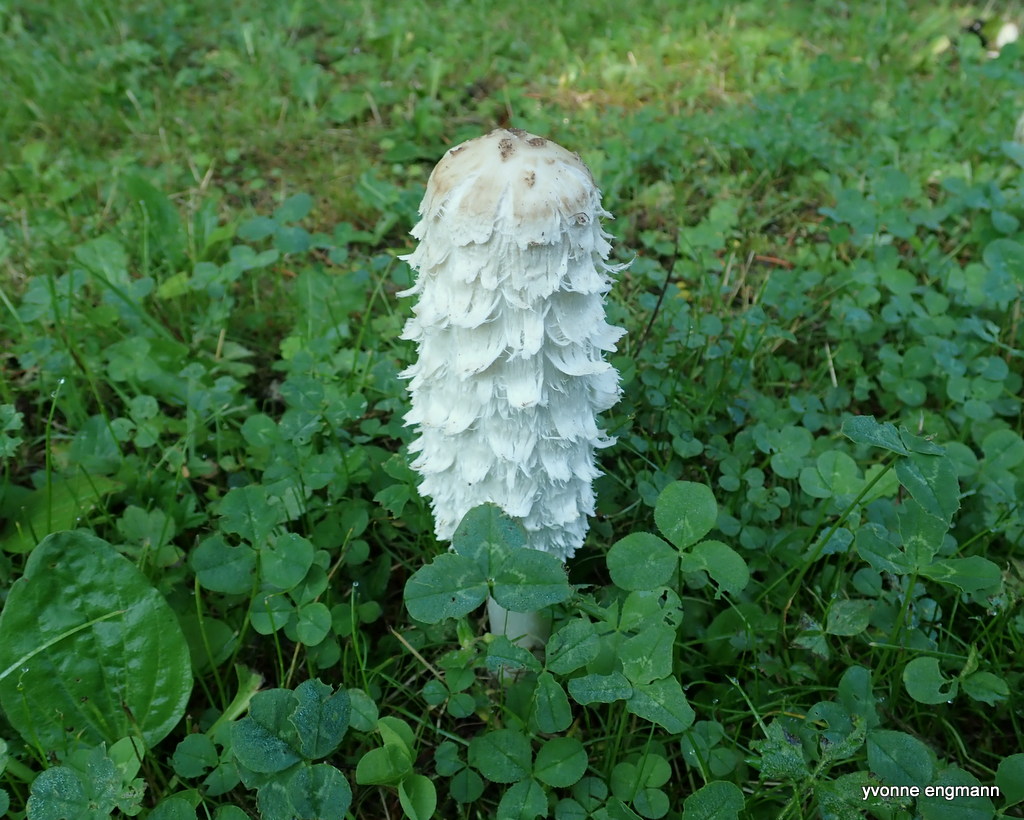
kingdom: Fungi
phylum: Basidiomycota
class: Agaricomycetes
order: Agaricales
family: Agaricaceae
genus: Coprinus
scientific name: Coprinus comatus
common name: stor parykhat
